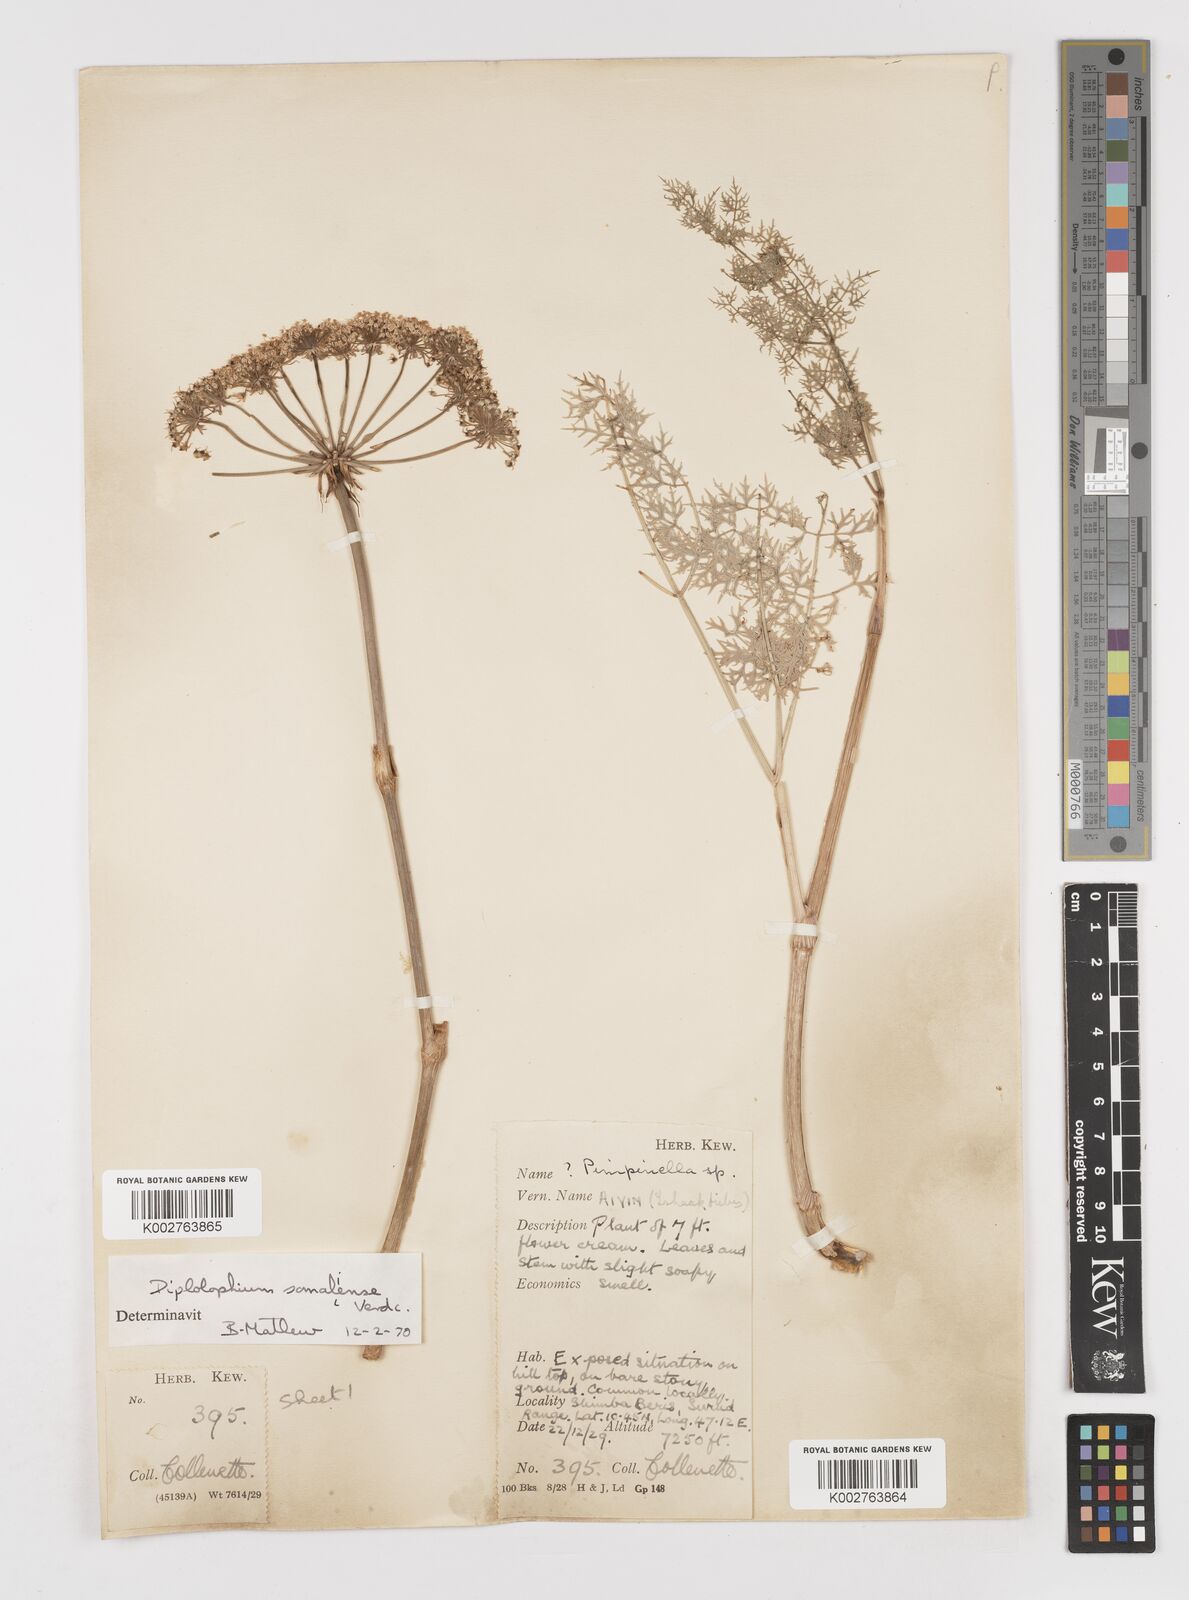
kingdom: Plantae
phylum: Tracheophyta
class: Magnoliopsida
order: Apiales
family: Apiaceae
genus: Diplolophium
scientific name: Diplolophium somaliense
